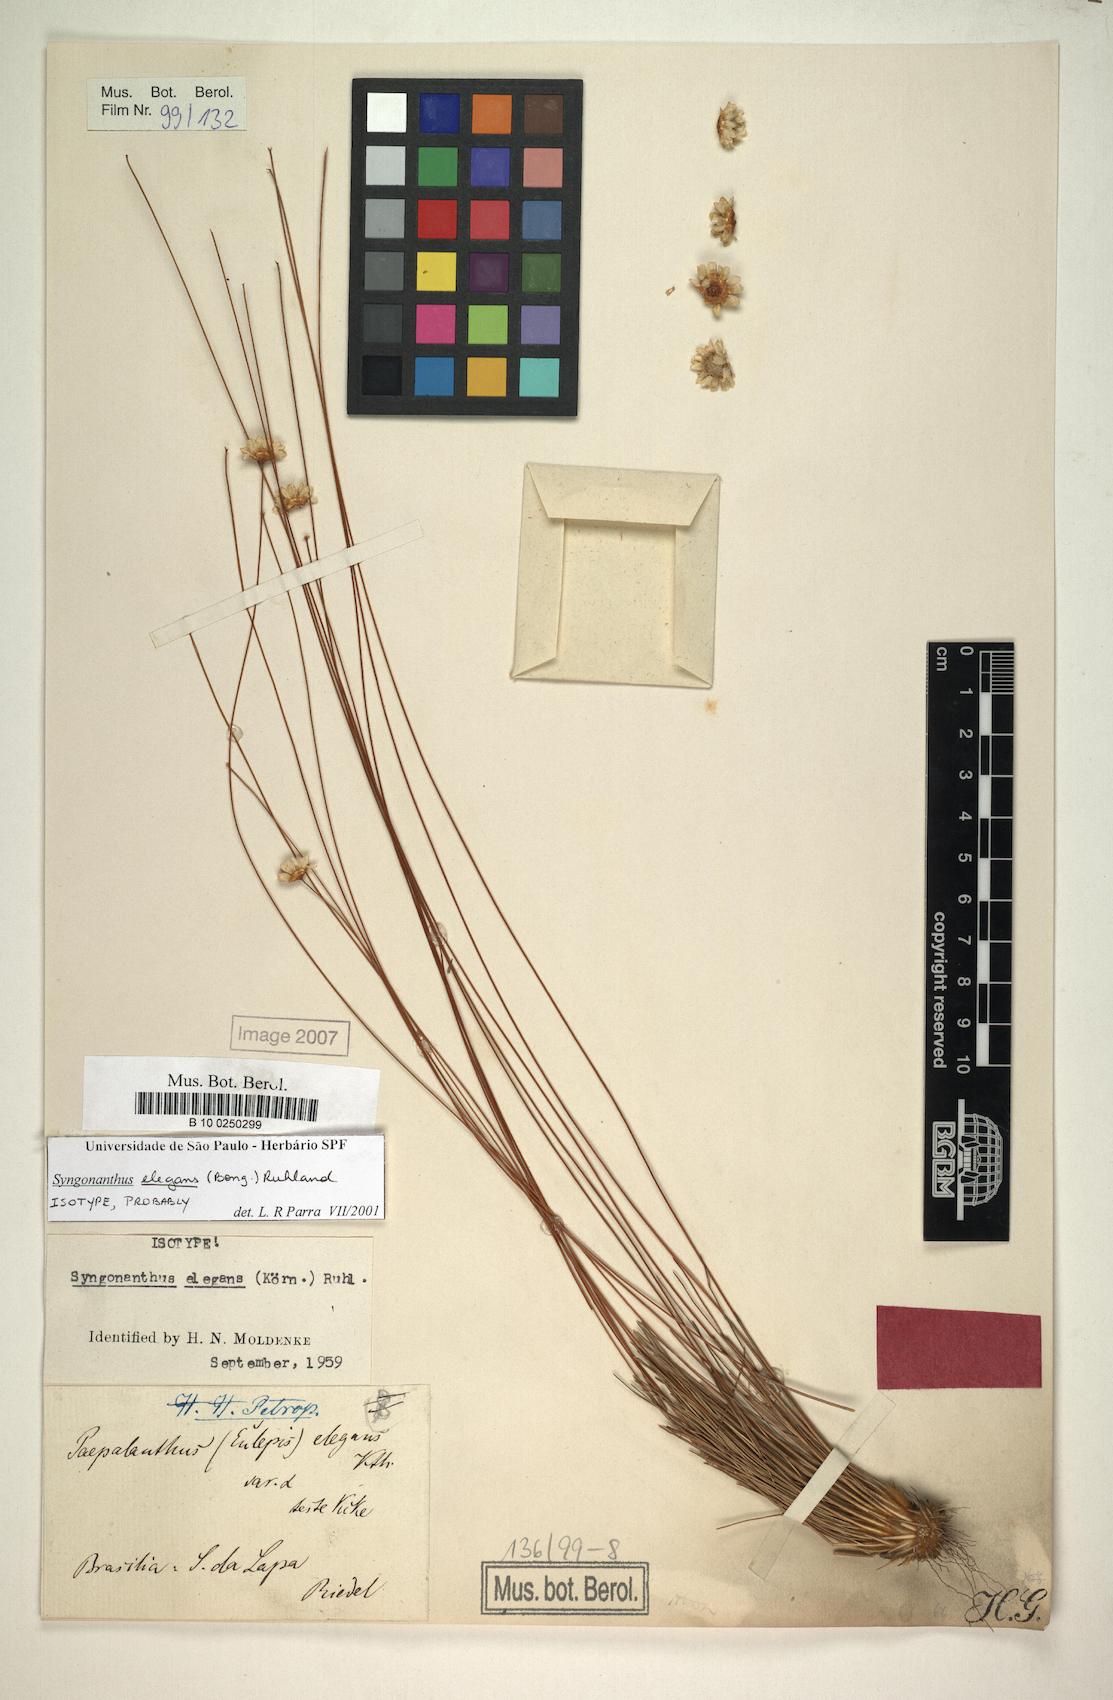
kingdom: Plantae
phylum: Tracheophyta
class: Liliopsida
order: Poales
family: Eriocaulaceae
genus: Comanthera
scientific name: Comanthera elegans
